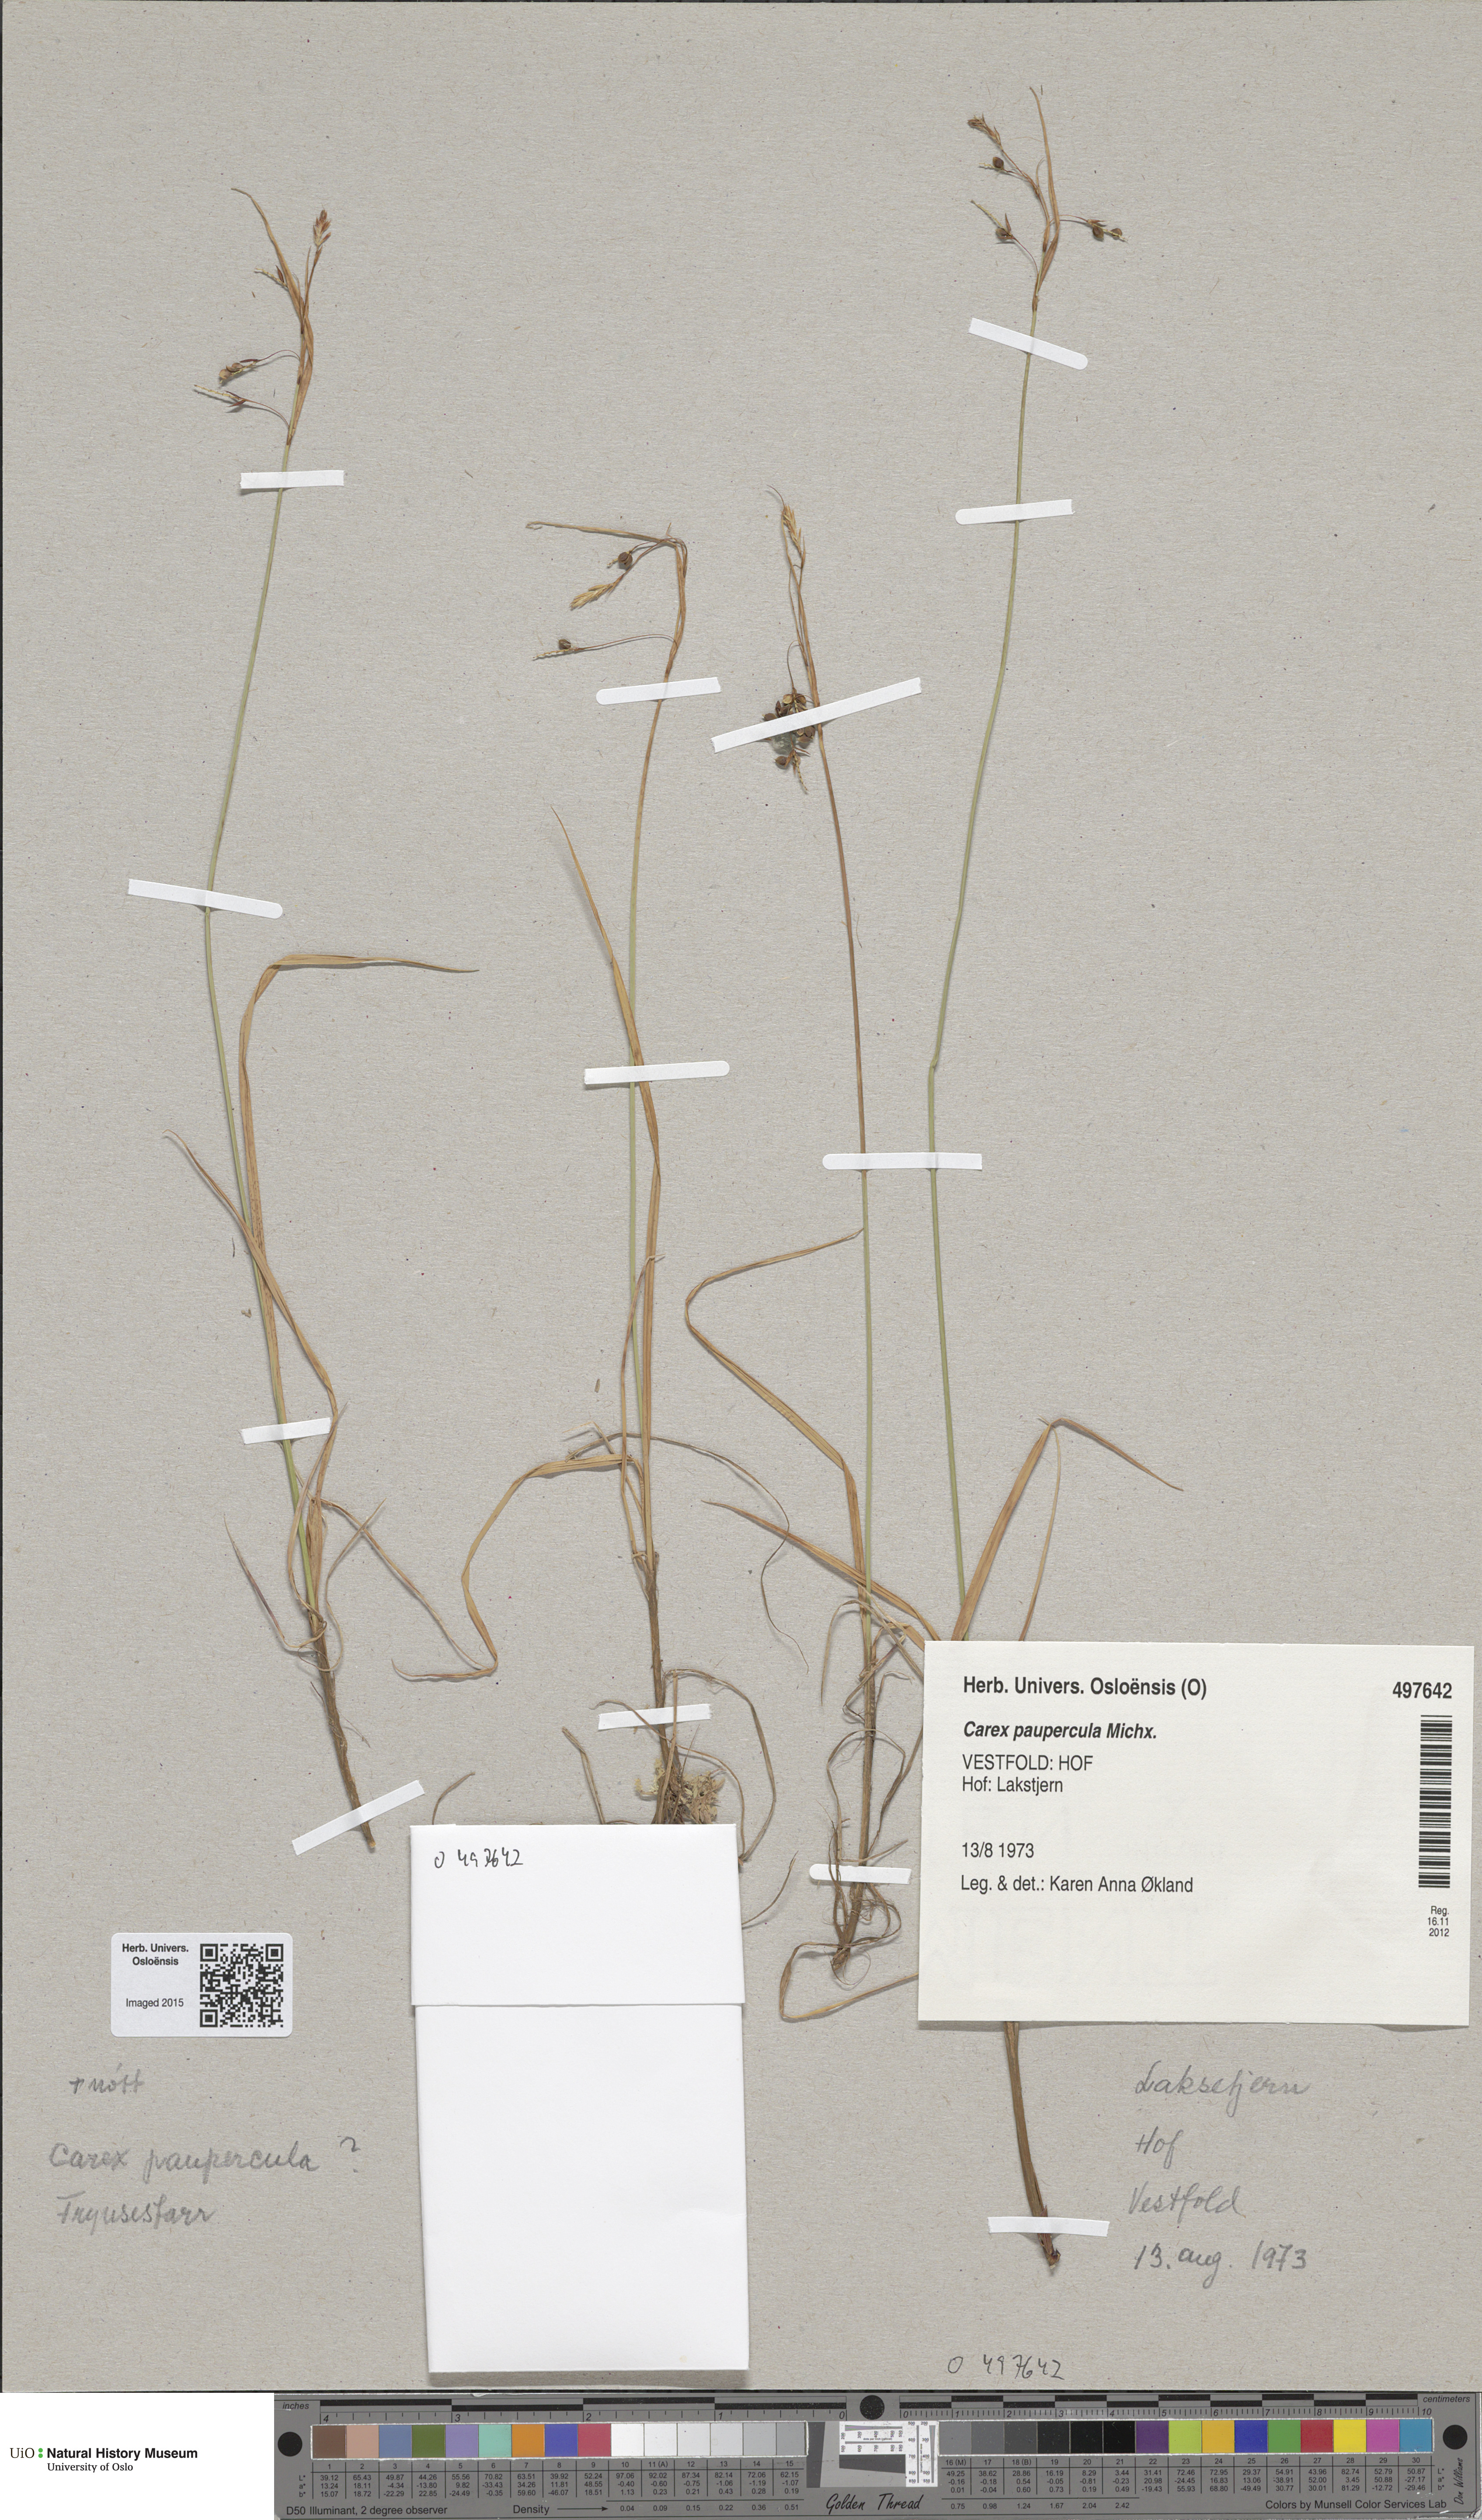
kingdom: Plantae
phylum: Tracheophyta
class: Liliopsida
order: Poales
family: Cyperaceae
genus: Carex
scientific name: Carex magellanica
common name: Bog sedge
